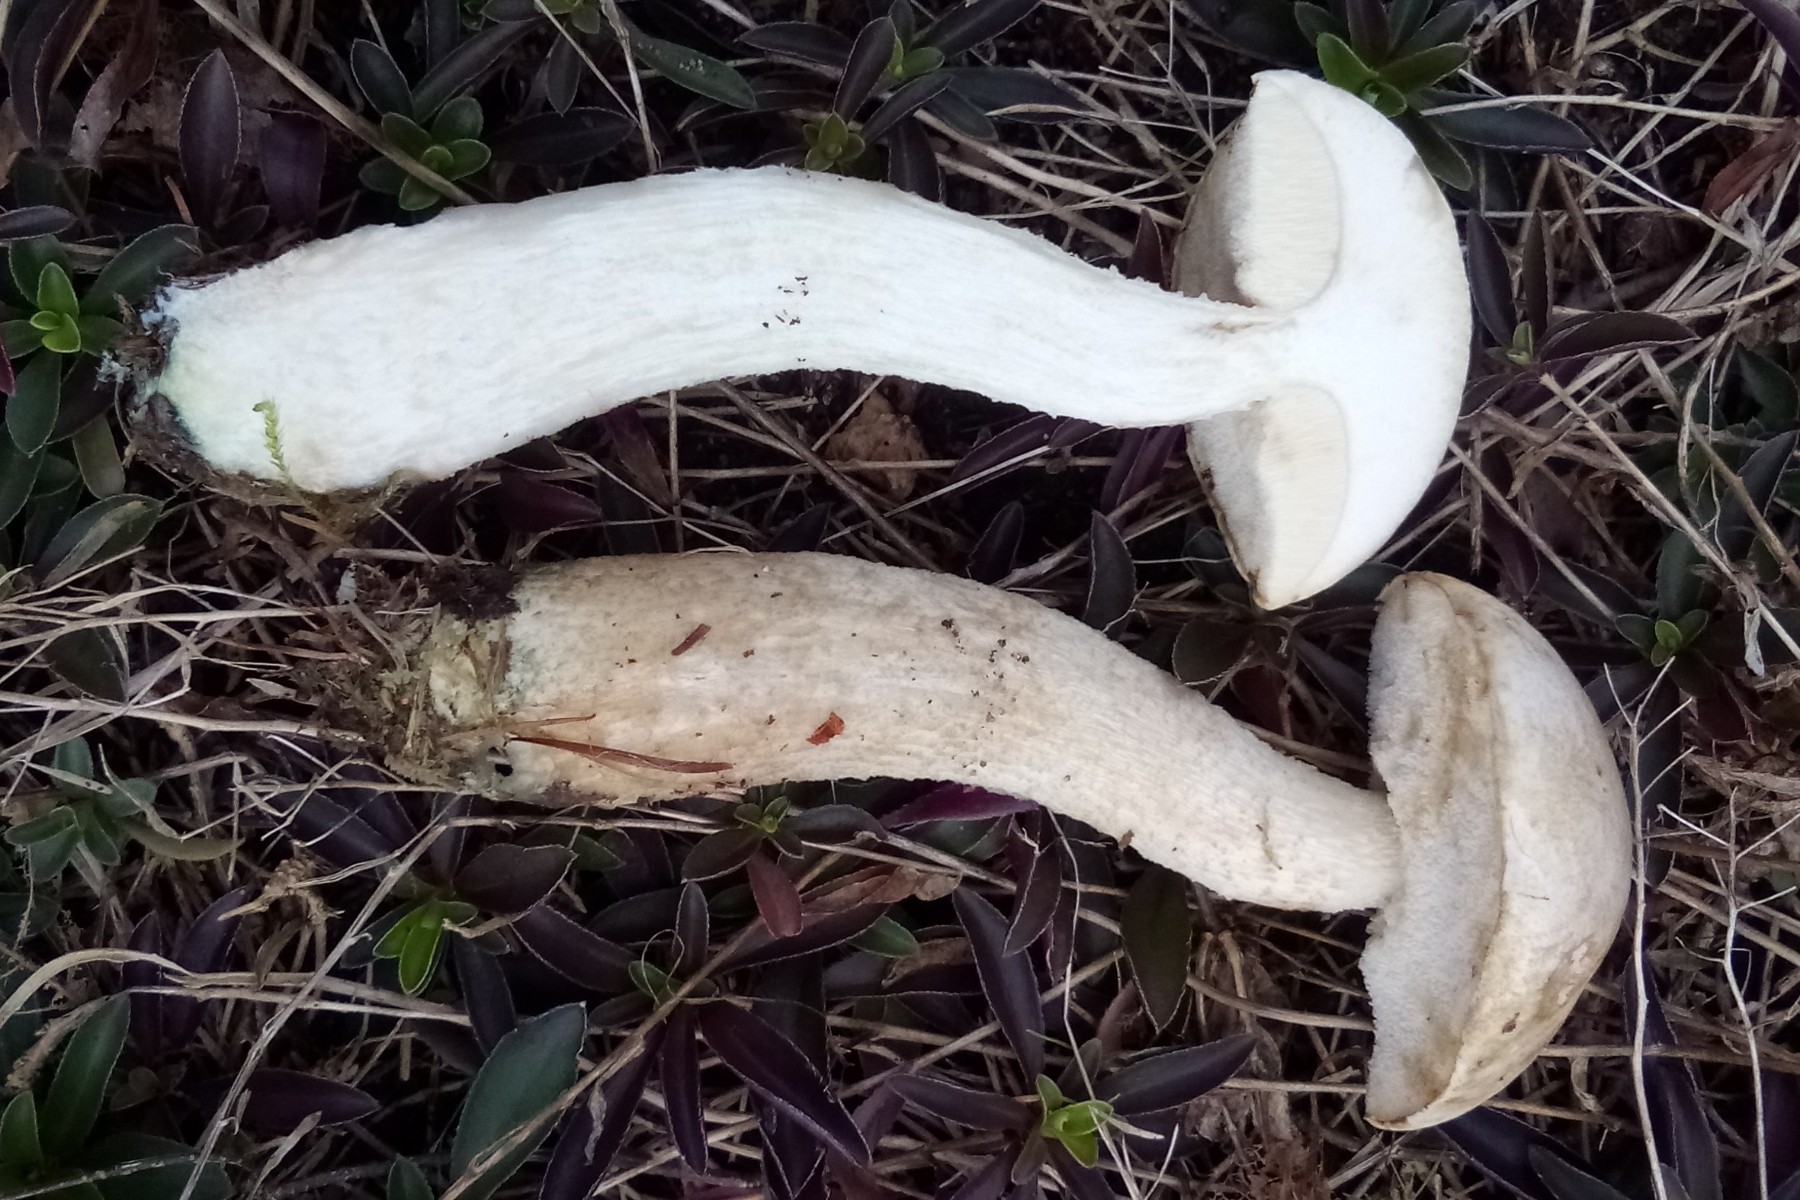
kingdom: Fungi
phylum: Basidiomycota
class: Agaricomycetes
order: Boletales
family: Boletaceae
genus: Leccinum
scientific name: Leccinum scabrum
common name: hvid skælrørhat
